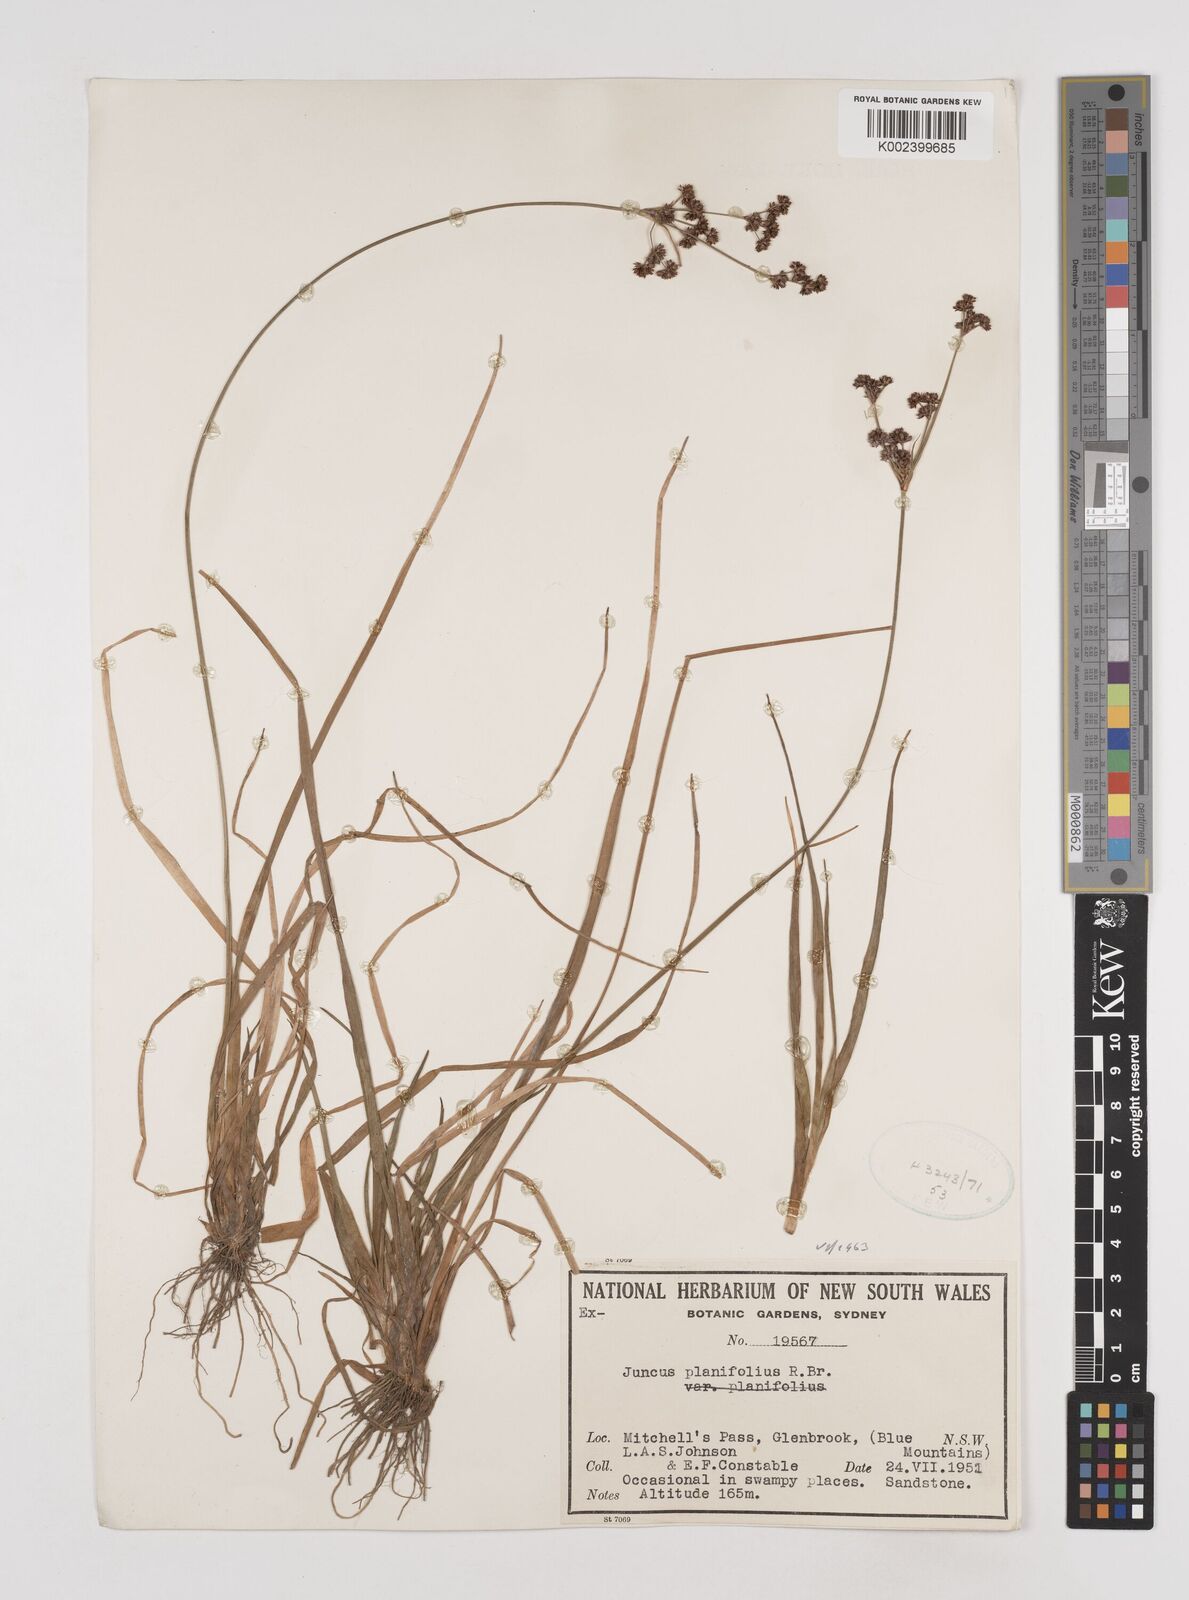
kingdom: Plantae
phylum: Tracheophyta
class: Liliopsida
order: Poales
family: Juncaceae
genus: Juncus
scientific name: Juncus planifolius
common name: Broadleaf rush
